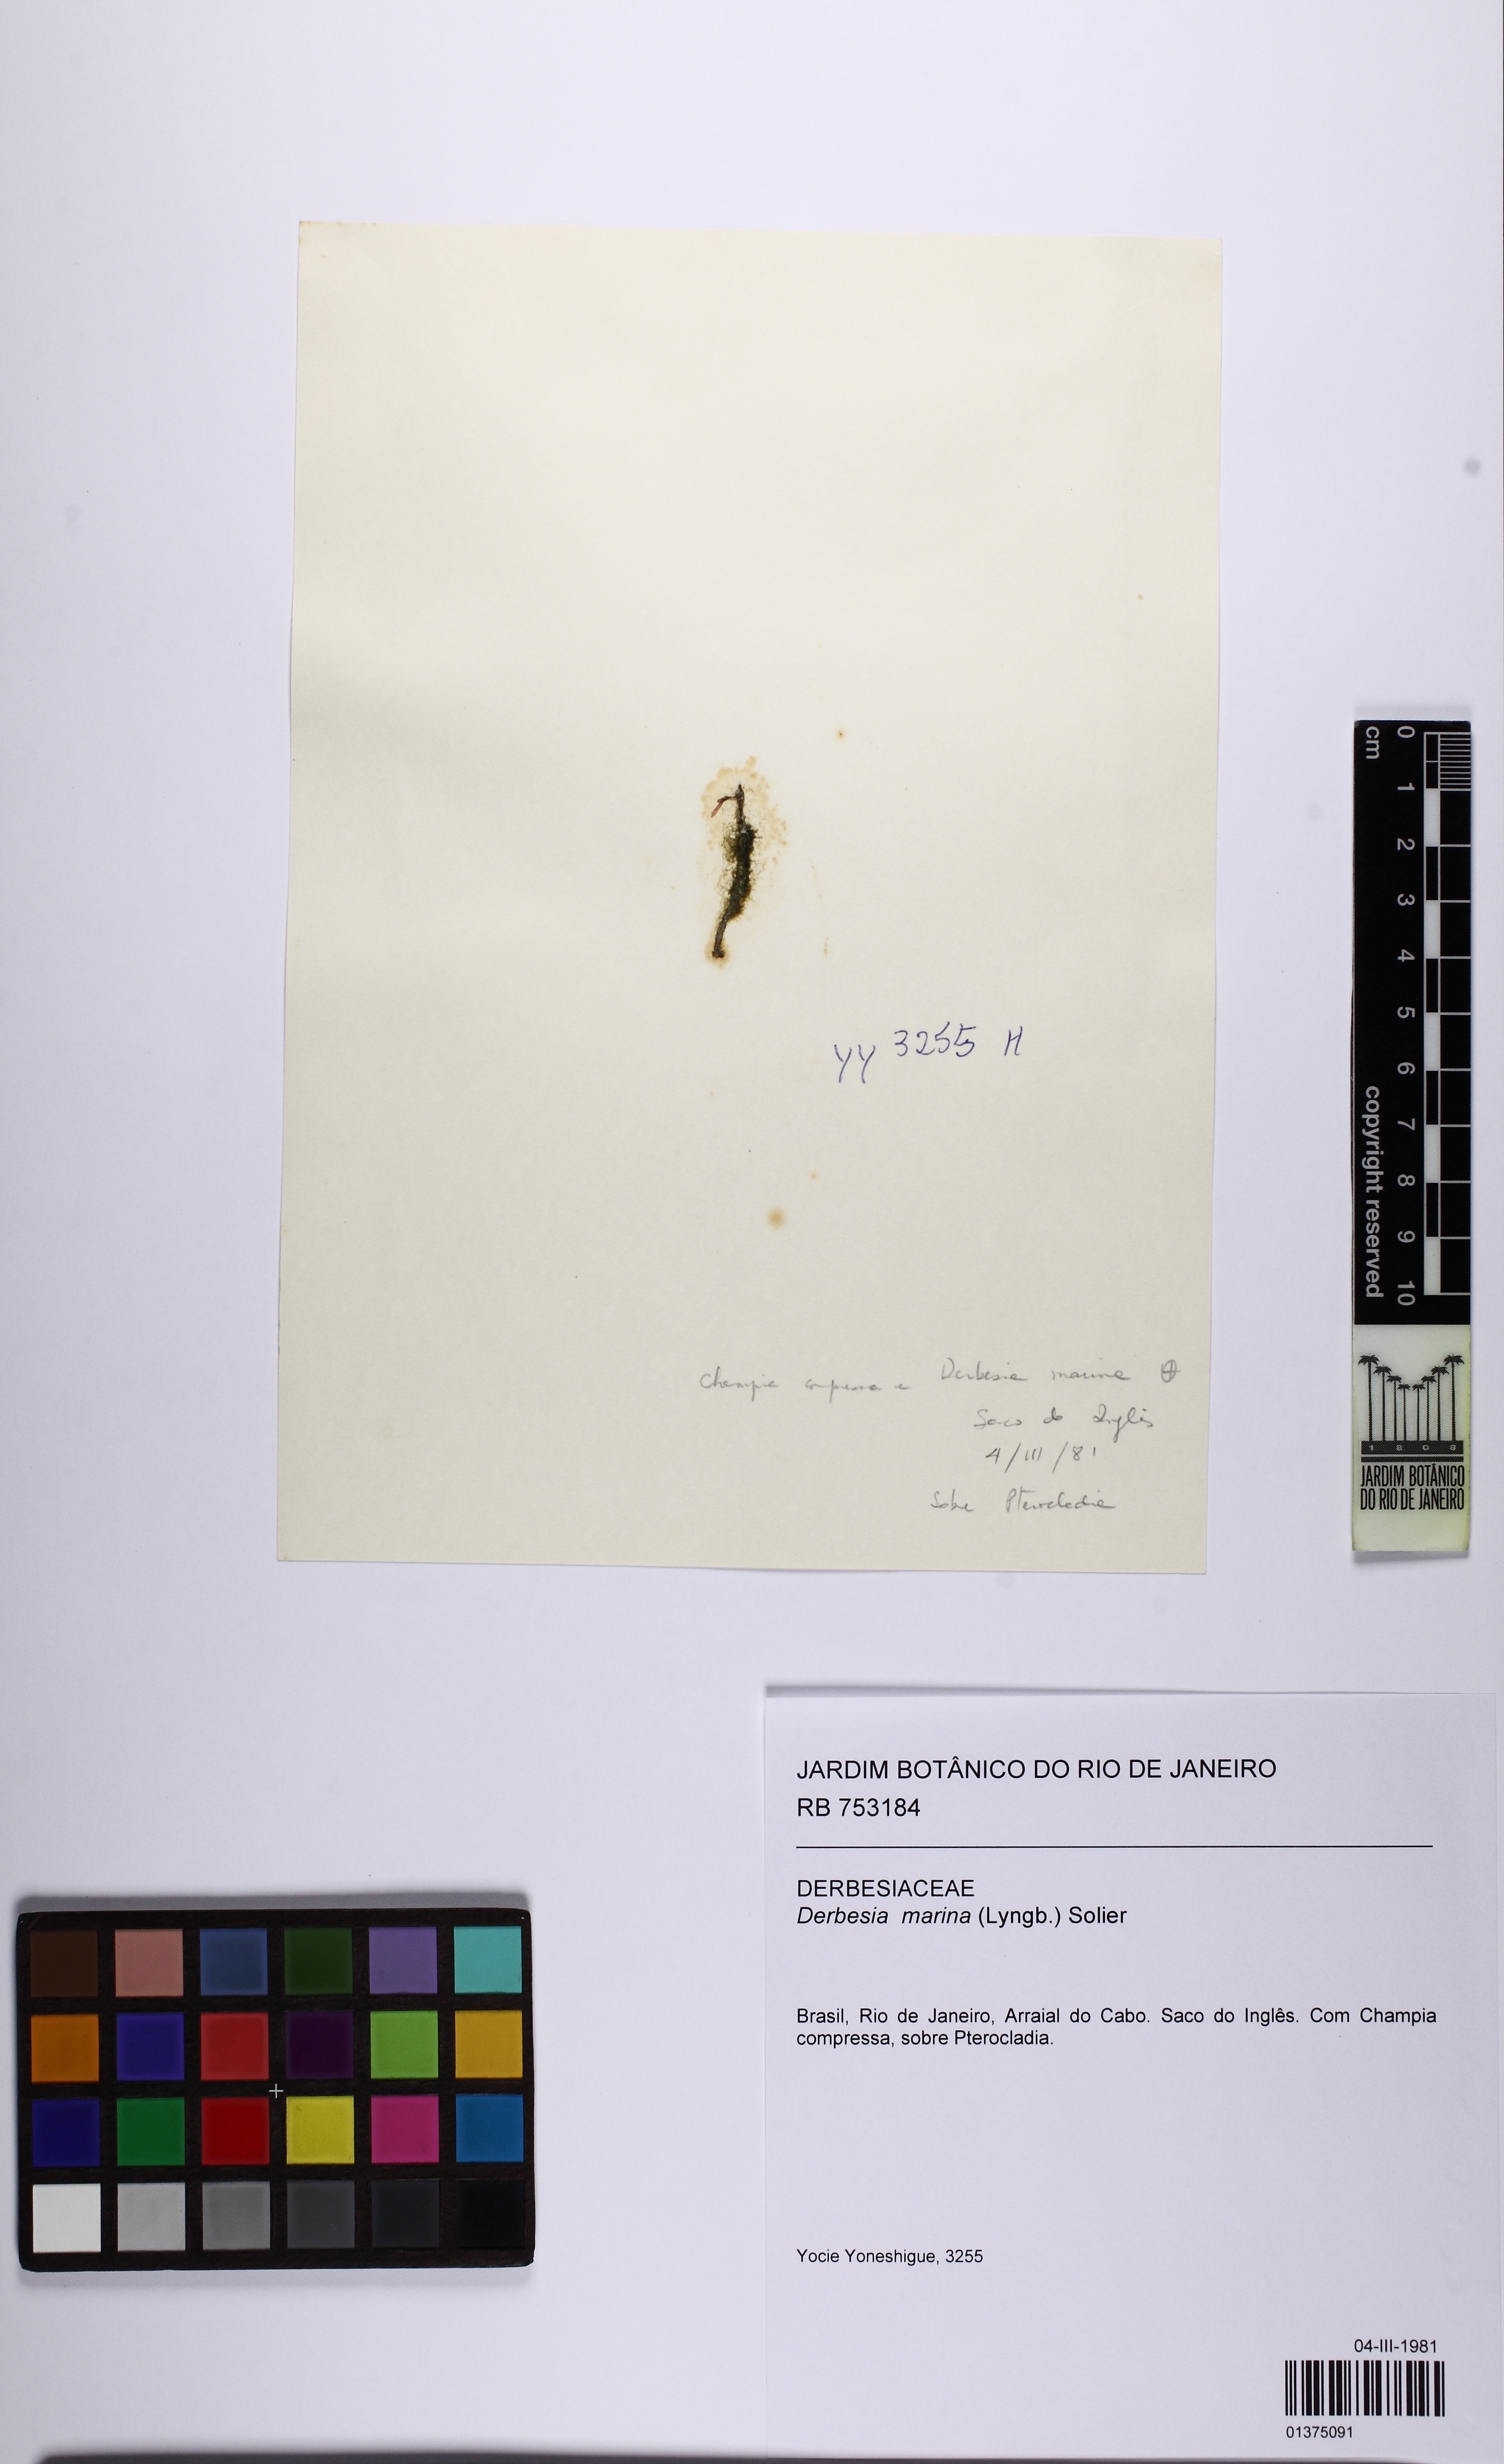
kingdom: Plantae
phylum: Chlorophyta
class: Ulvophyceae
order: Bryopsidales
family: Derbesiaceae
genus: Derbesia
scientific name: Derbesia marina
